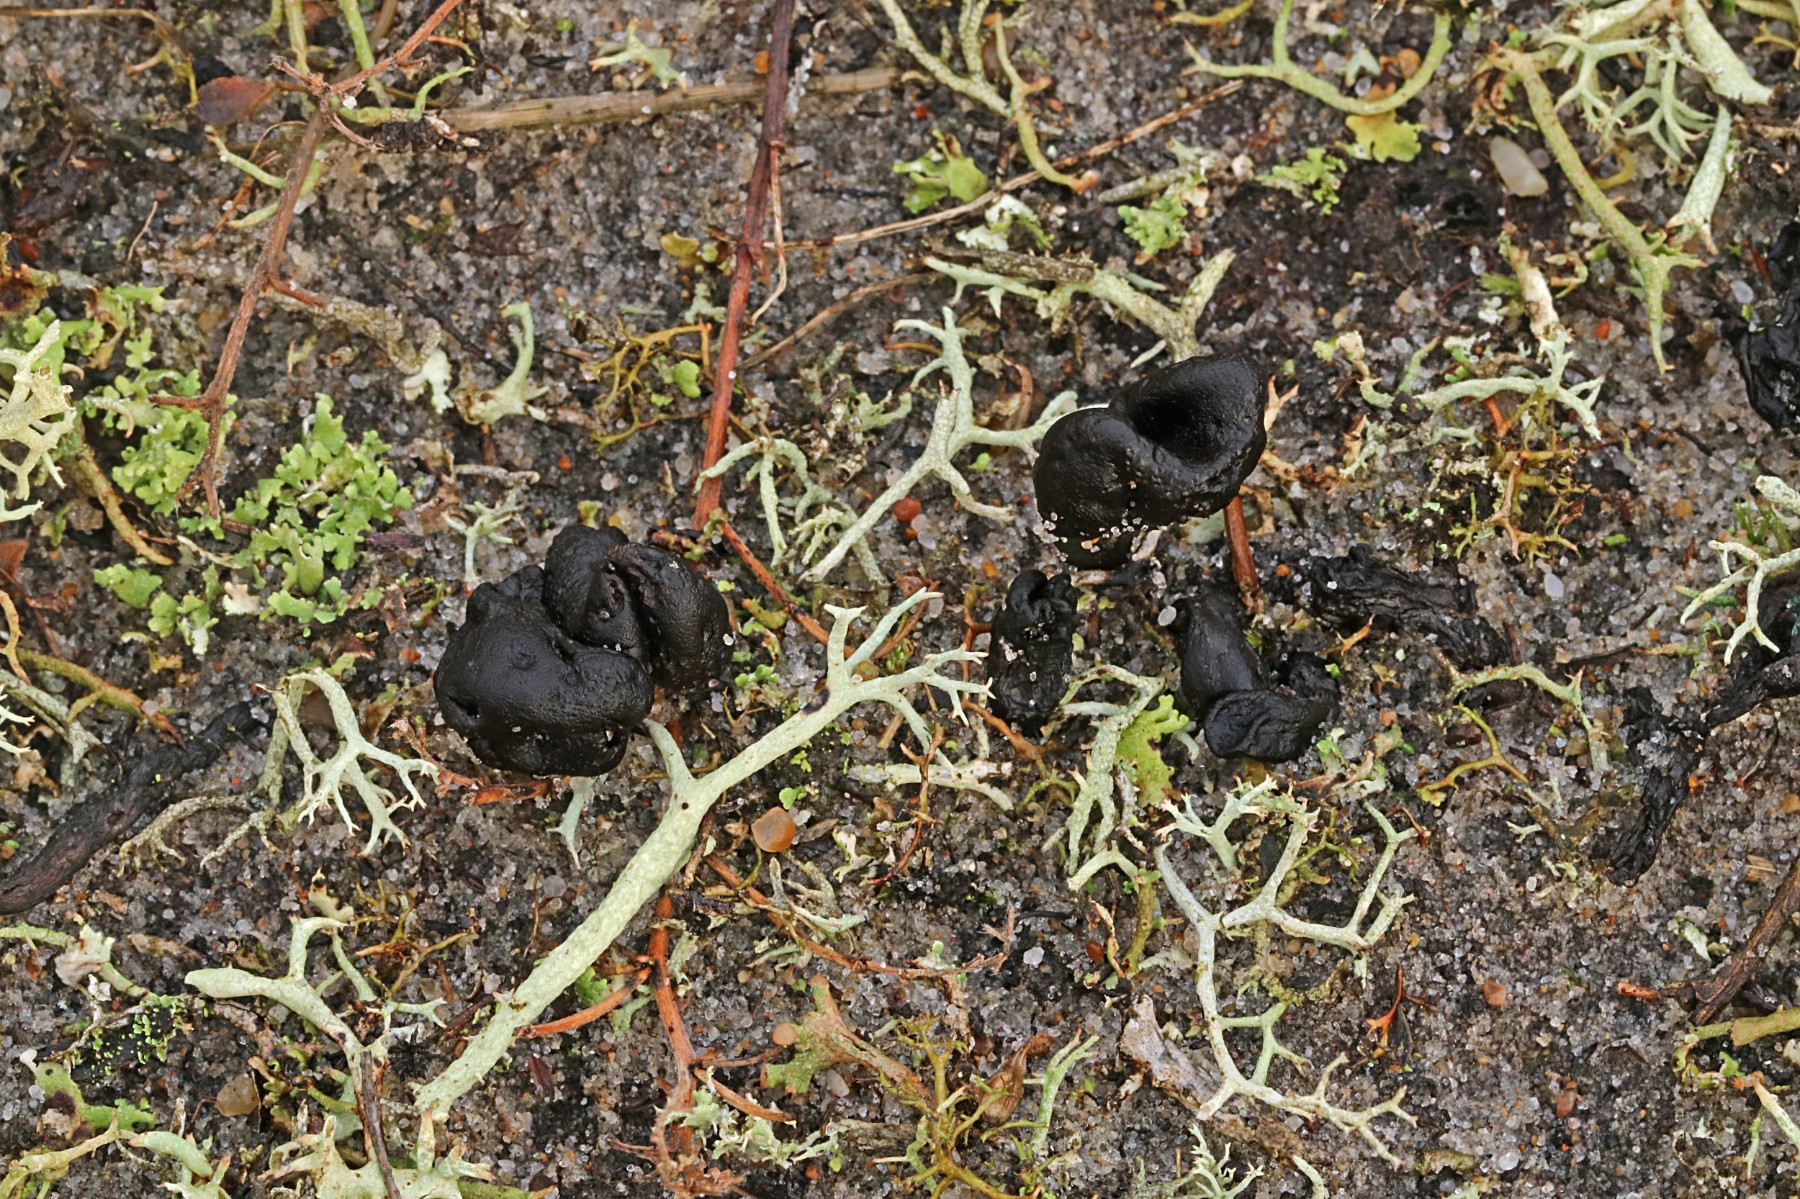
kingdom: Fungi
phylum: Ascomycota
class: Geoglossomycetes
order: Geoglossales
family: Geoglossaceae
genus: Sabuloglossum
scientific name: Sabuloglossum arenarium
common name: klit-jordtunge
